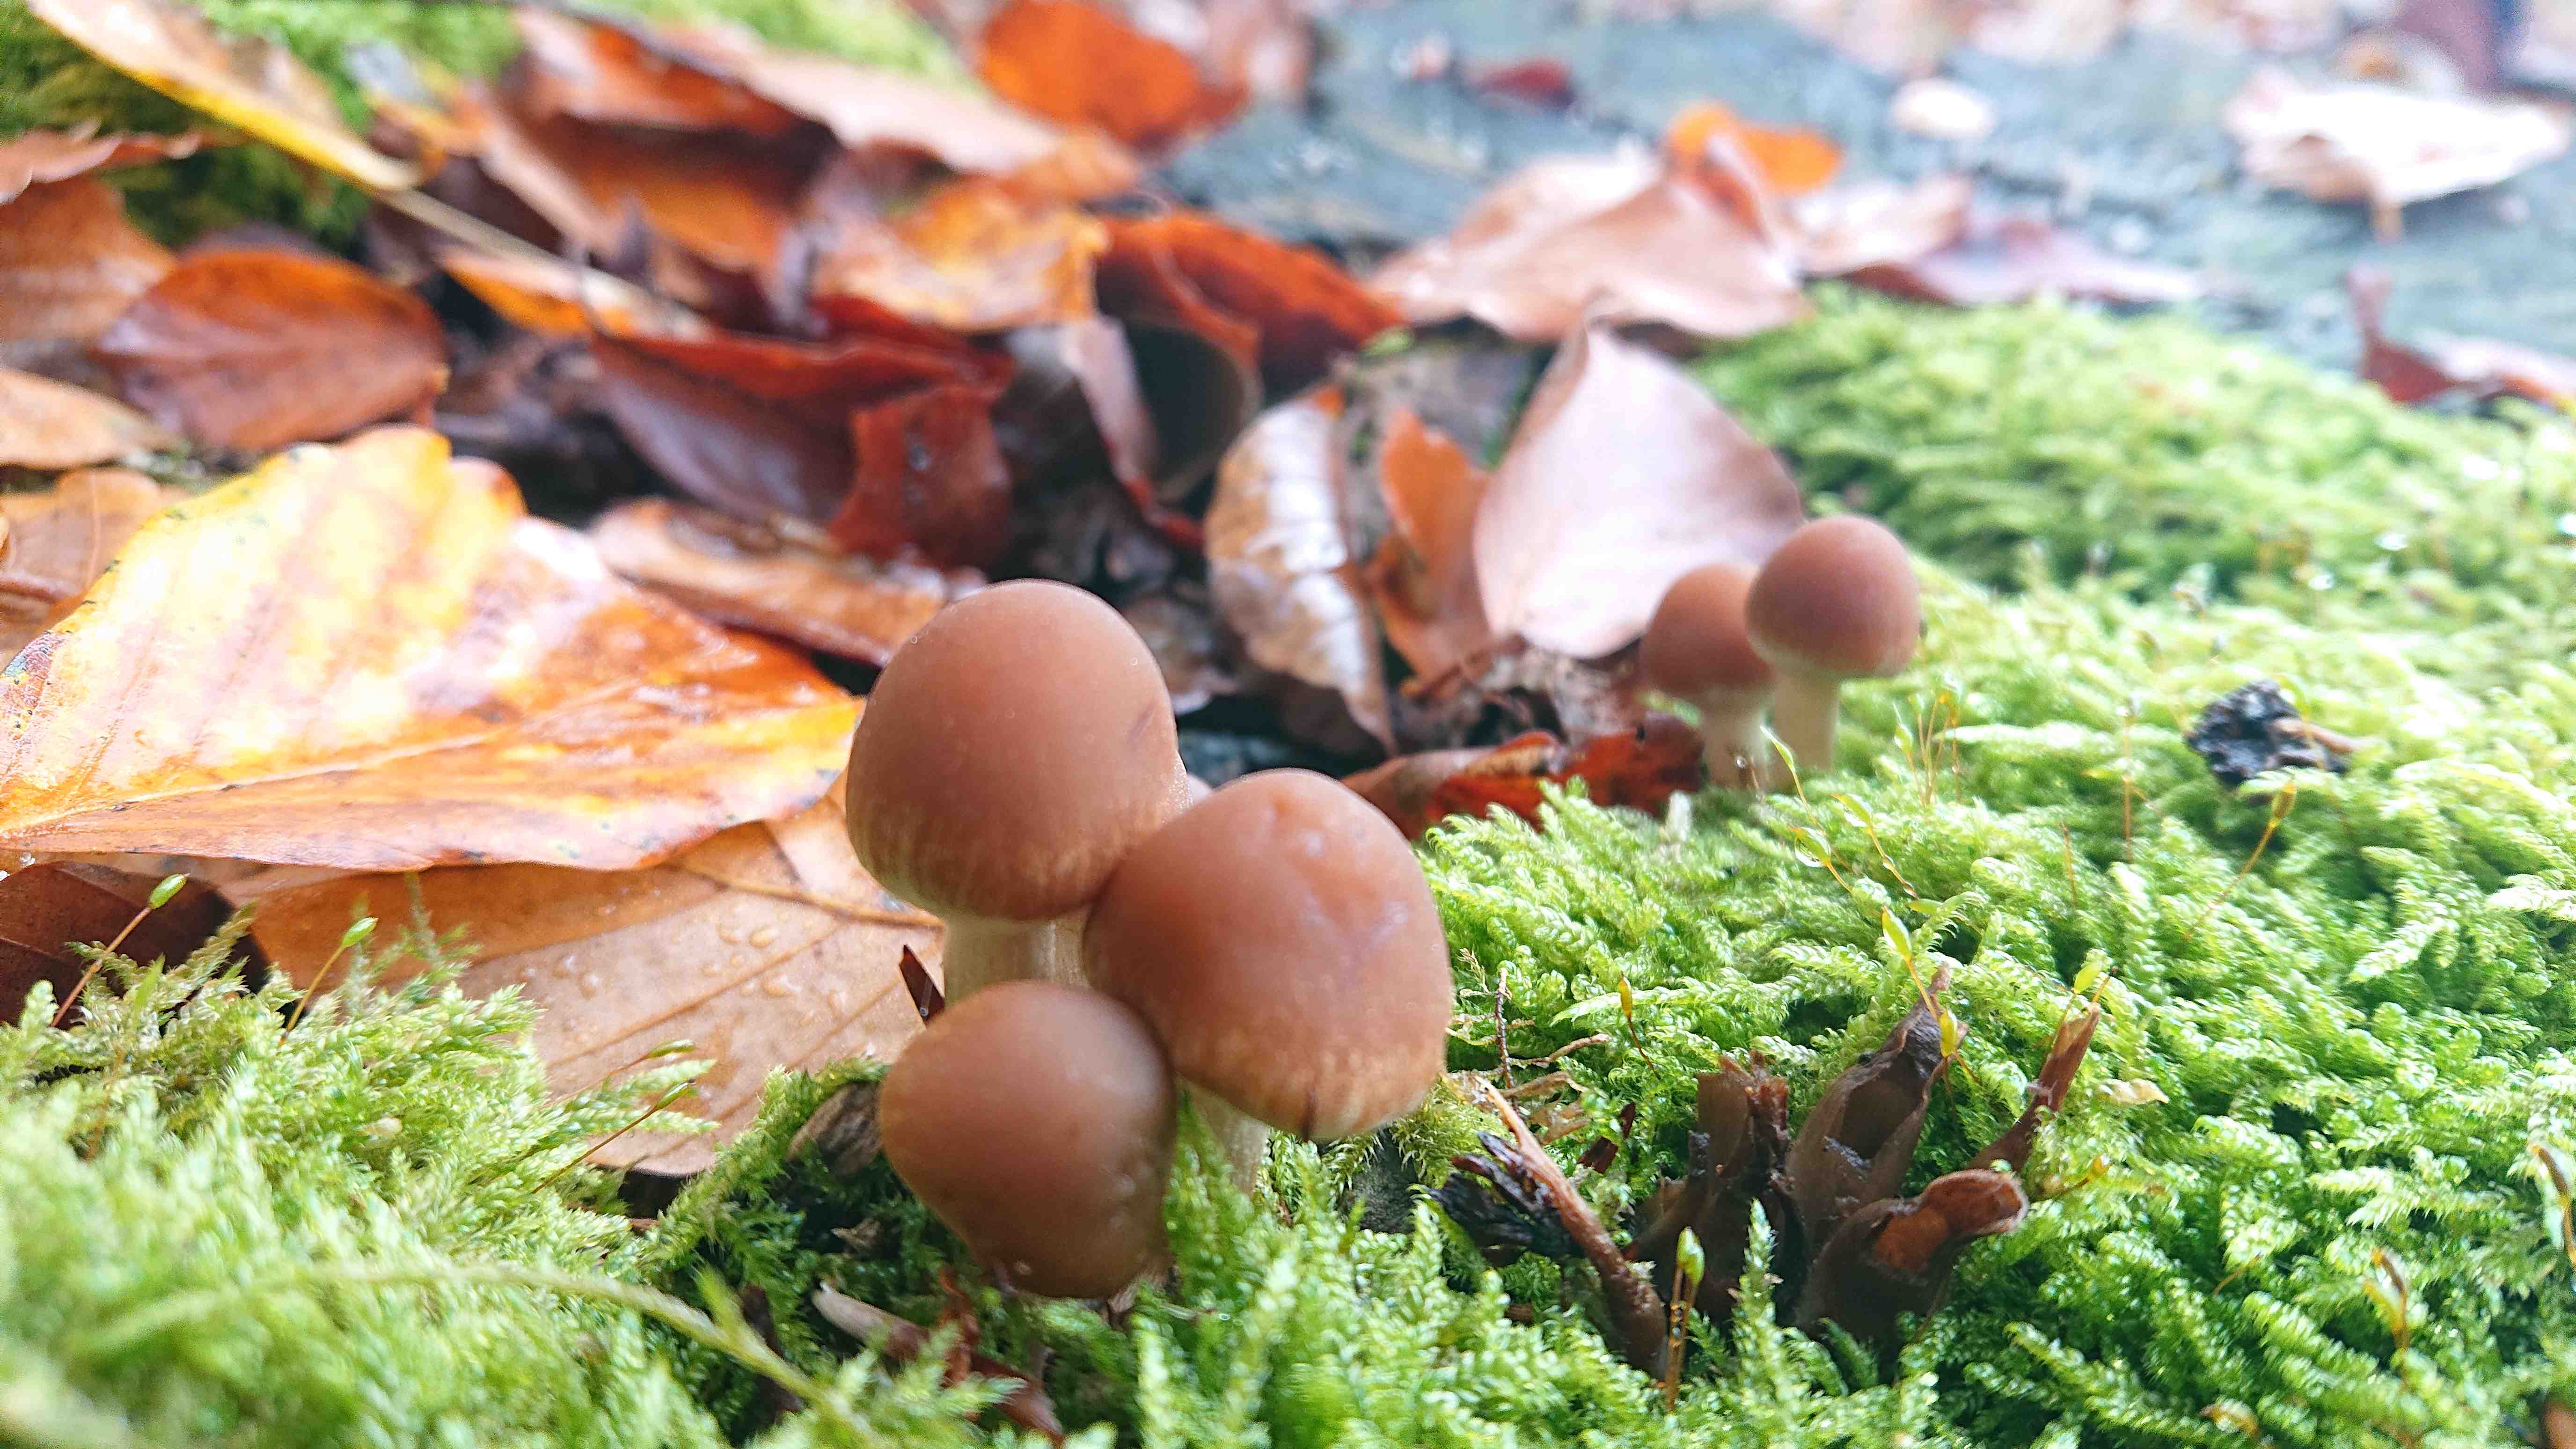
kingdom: Fungi
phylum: Basidiomycota
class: Agaricomycetes
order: Agaricales
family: Psathyrellaceae
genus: Psathyrella
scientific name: Psathyrella piluliformis
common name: lysstokket mørkhat
